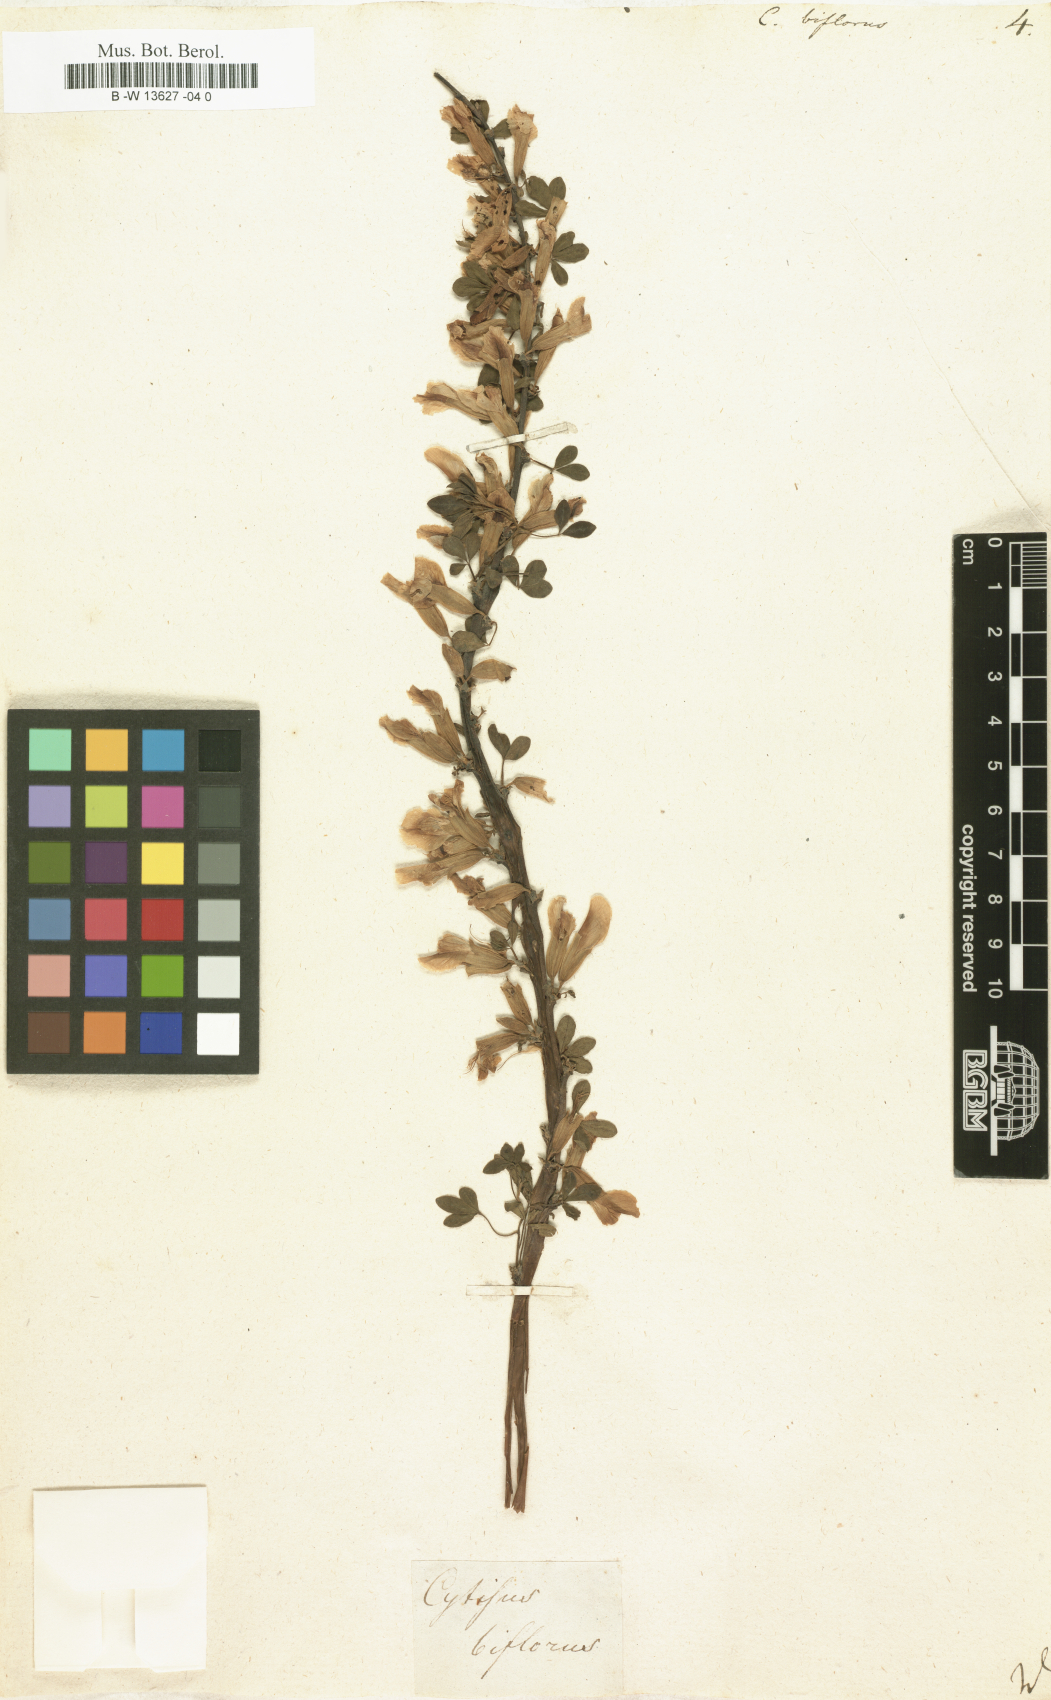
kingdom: Plantae
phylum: Tracheophyta
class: Magnoliopsida
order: Fabales
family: Fabaceae
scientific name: Fabaceae
